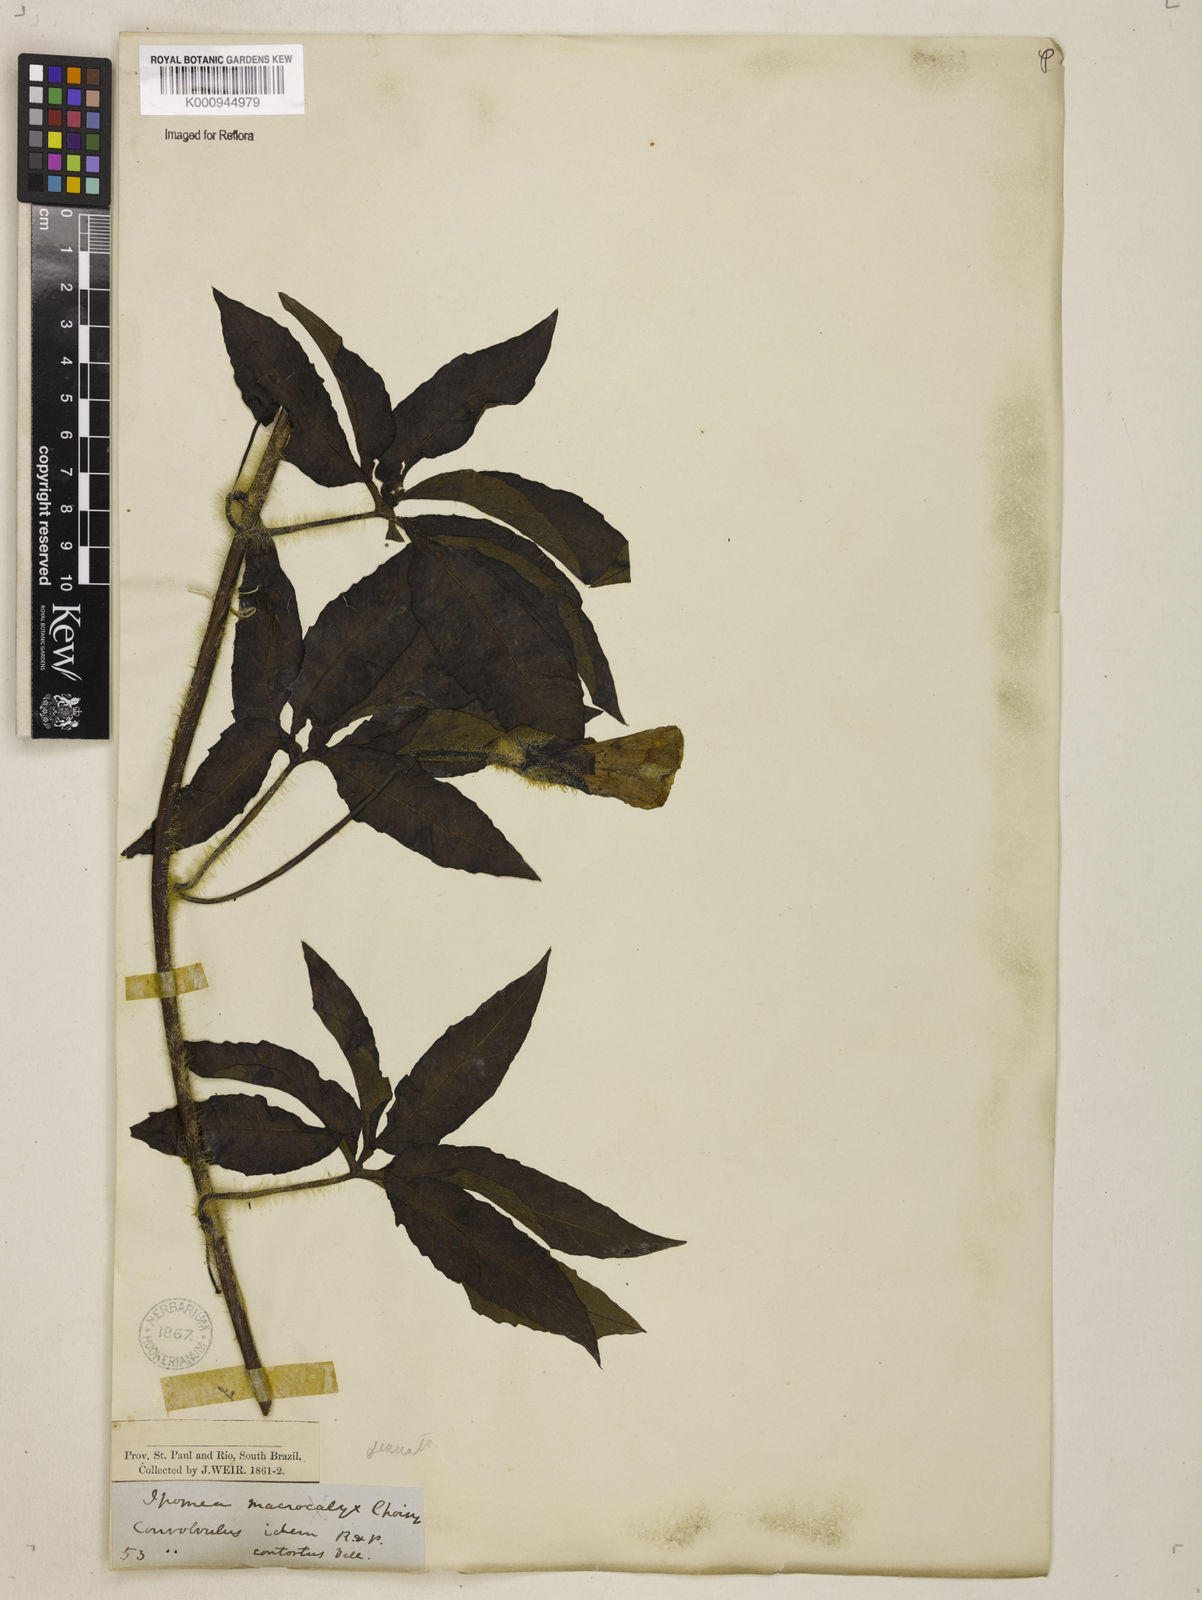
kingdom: Plantae
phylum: Tracheophyta
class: Magnoliopsida
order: Solanales
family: Convolvulaceae
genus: Distimake
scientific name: Distimake dissectus
